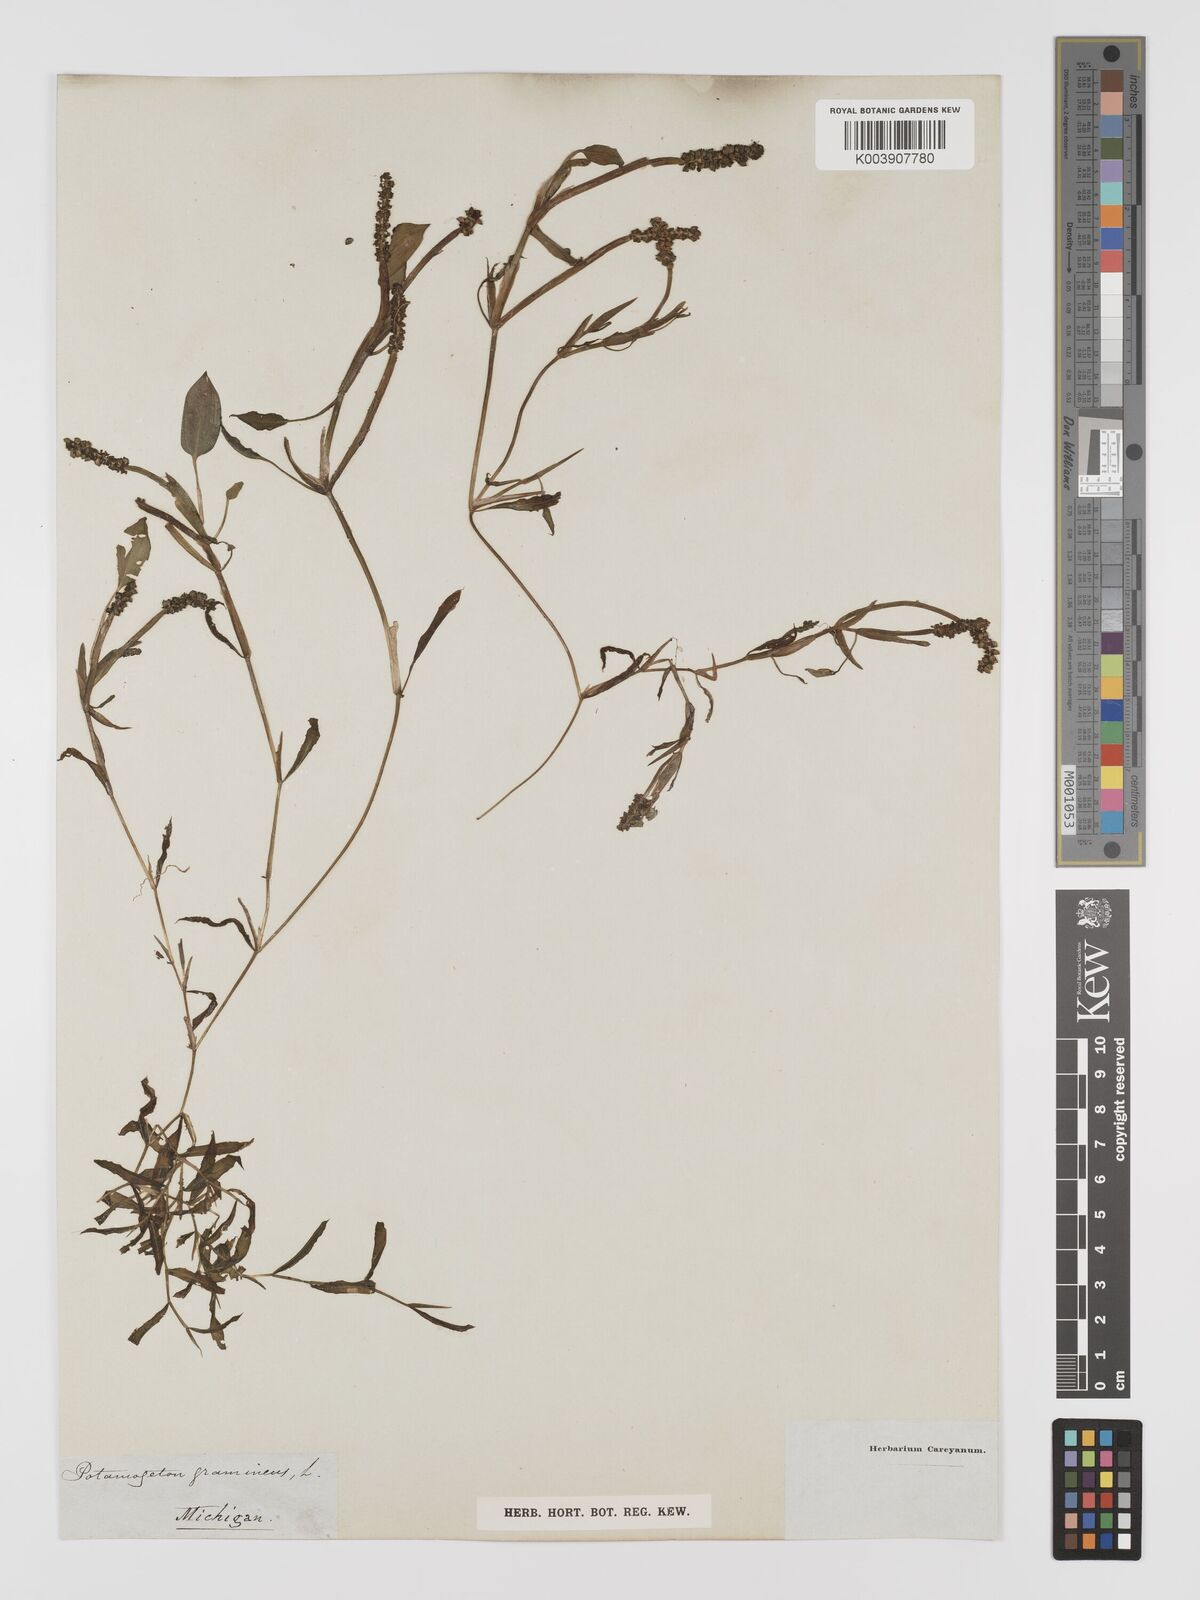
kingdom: Plantae
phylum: Tracheophyta
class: Liliopsida
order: Alismatales
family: Potamogetonaceae
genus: Potamogeton
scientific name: Potamogeton gramineus
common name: Various-leaved pondweed
